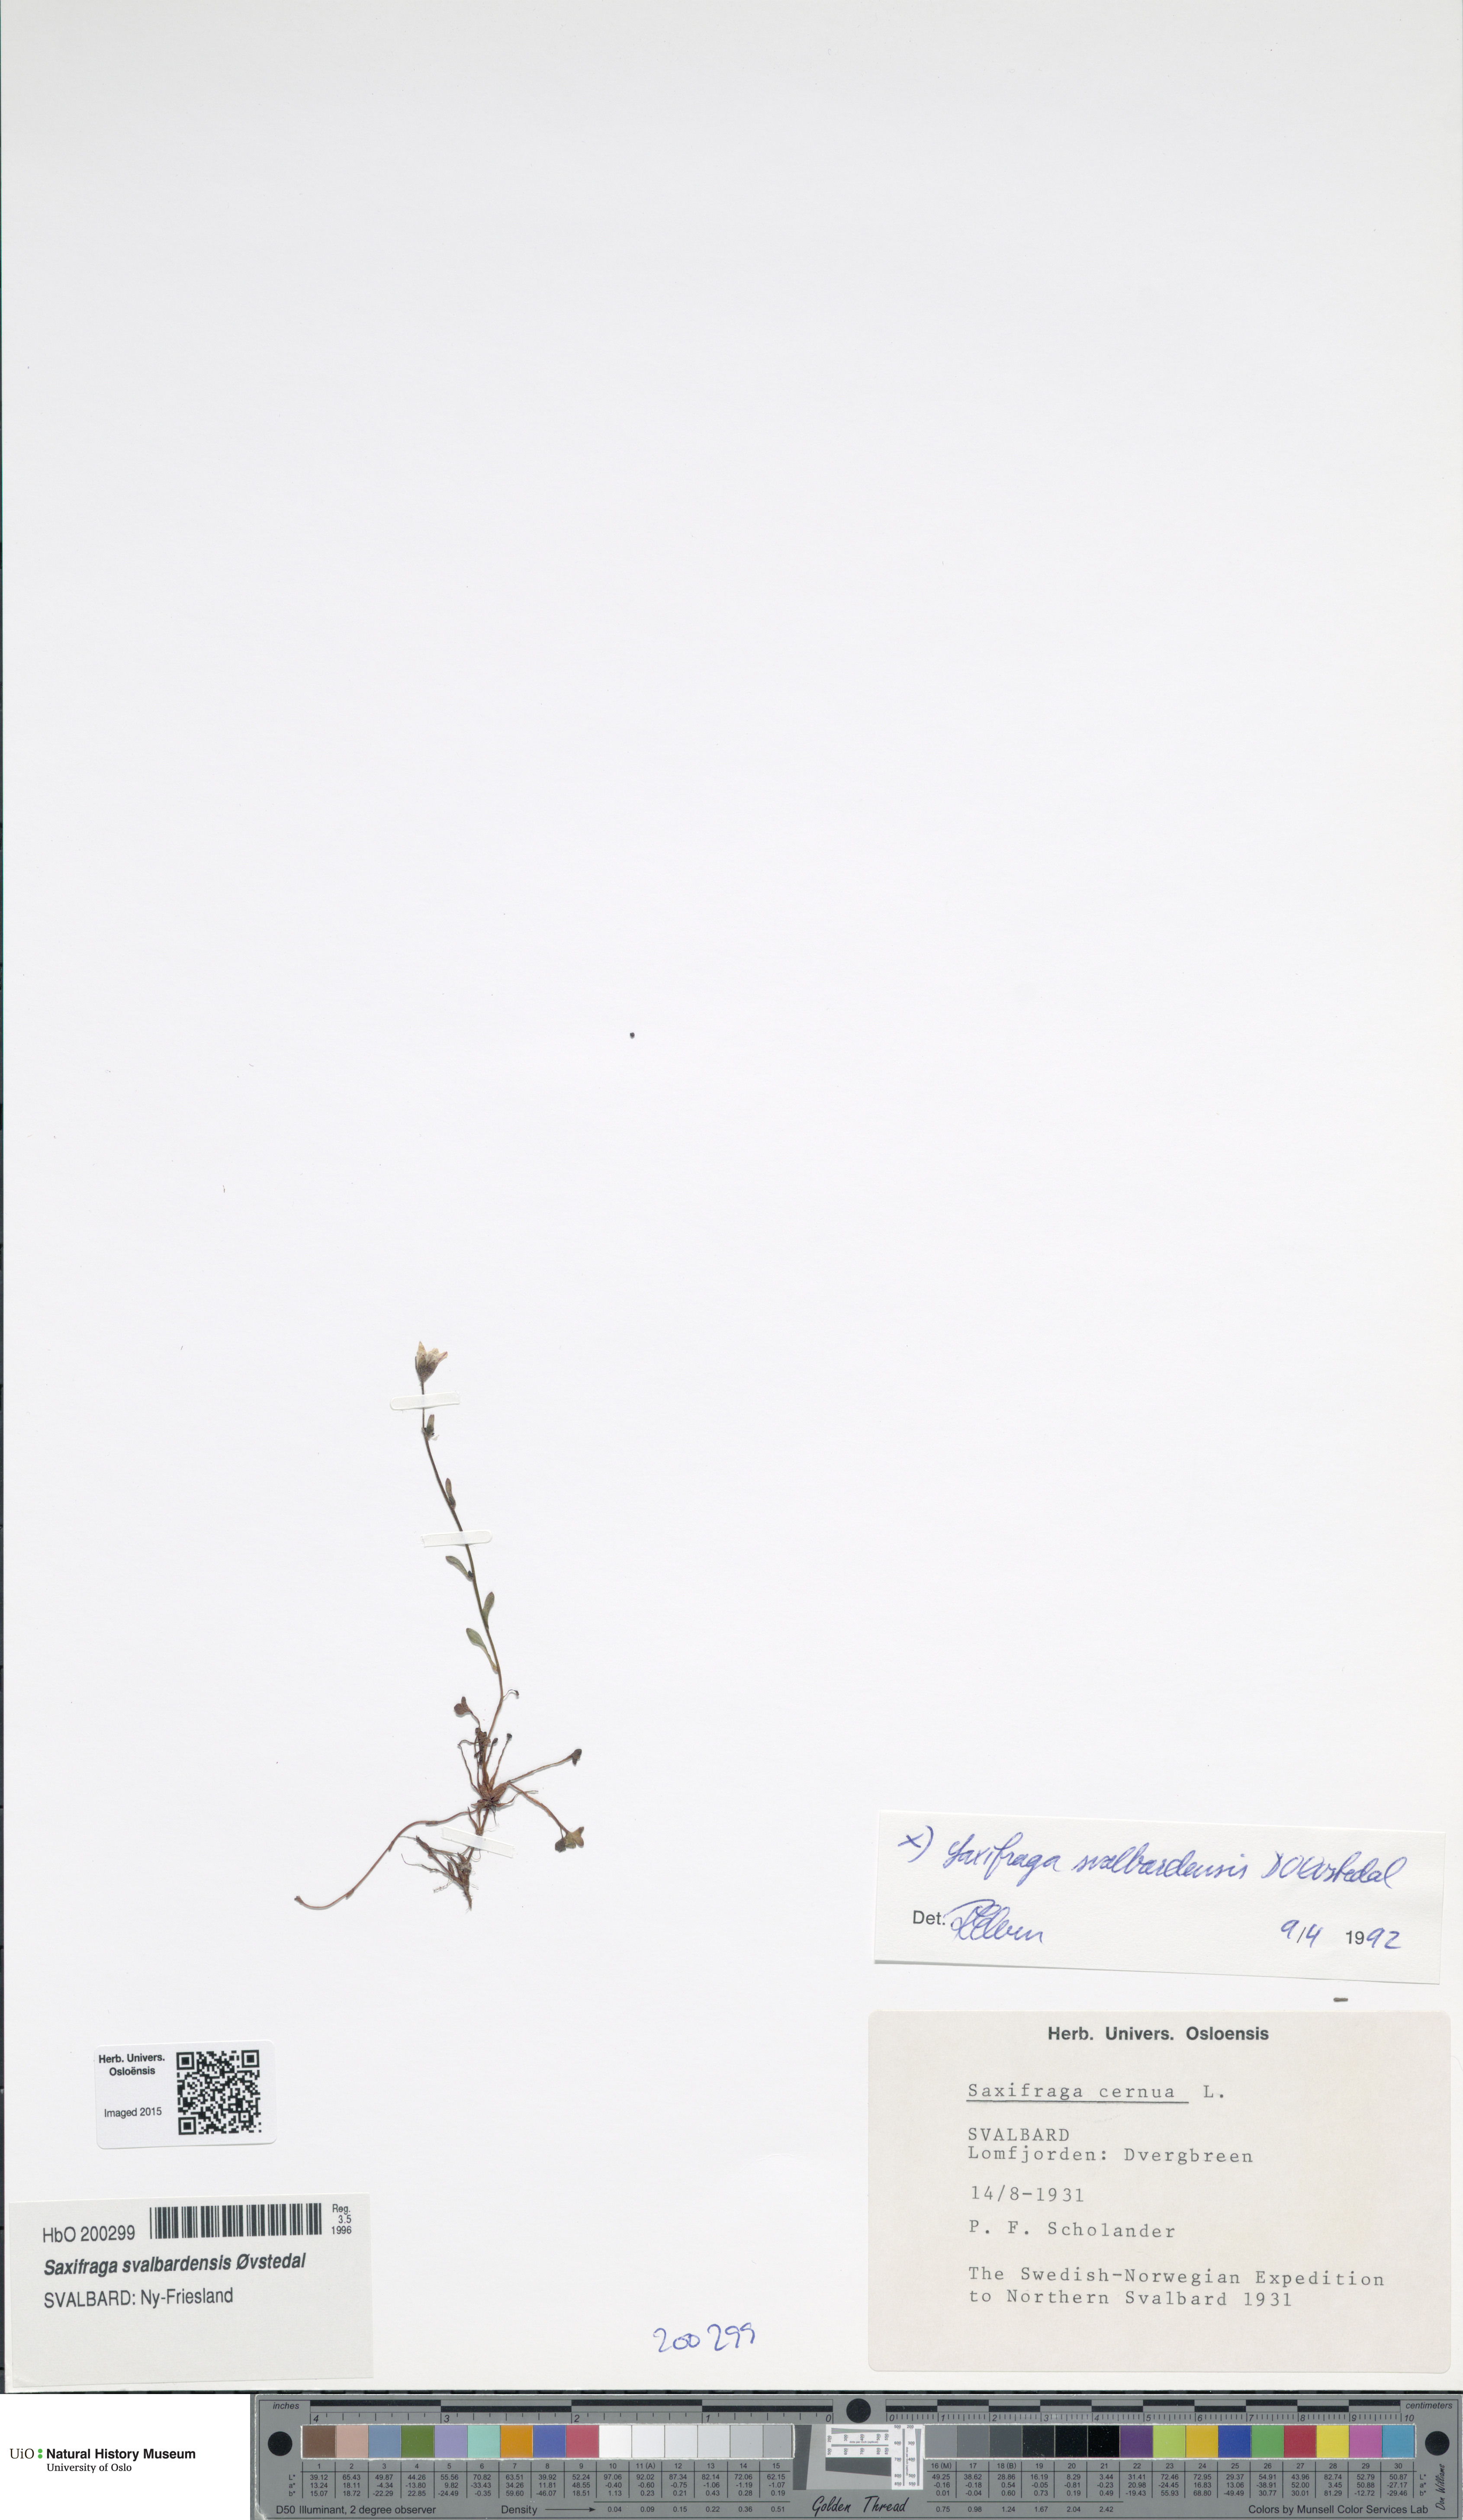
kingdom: Plantae
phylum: Tracheophyta
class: Magnoliopsida
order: Saxifragales
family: Saxifragaceae
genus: Saxifraga
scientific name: Saxifraga svalbardensis
